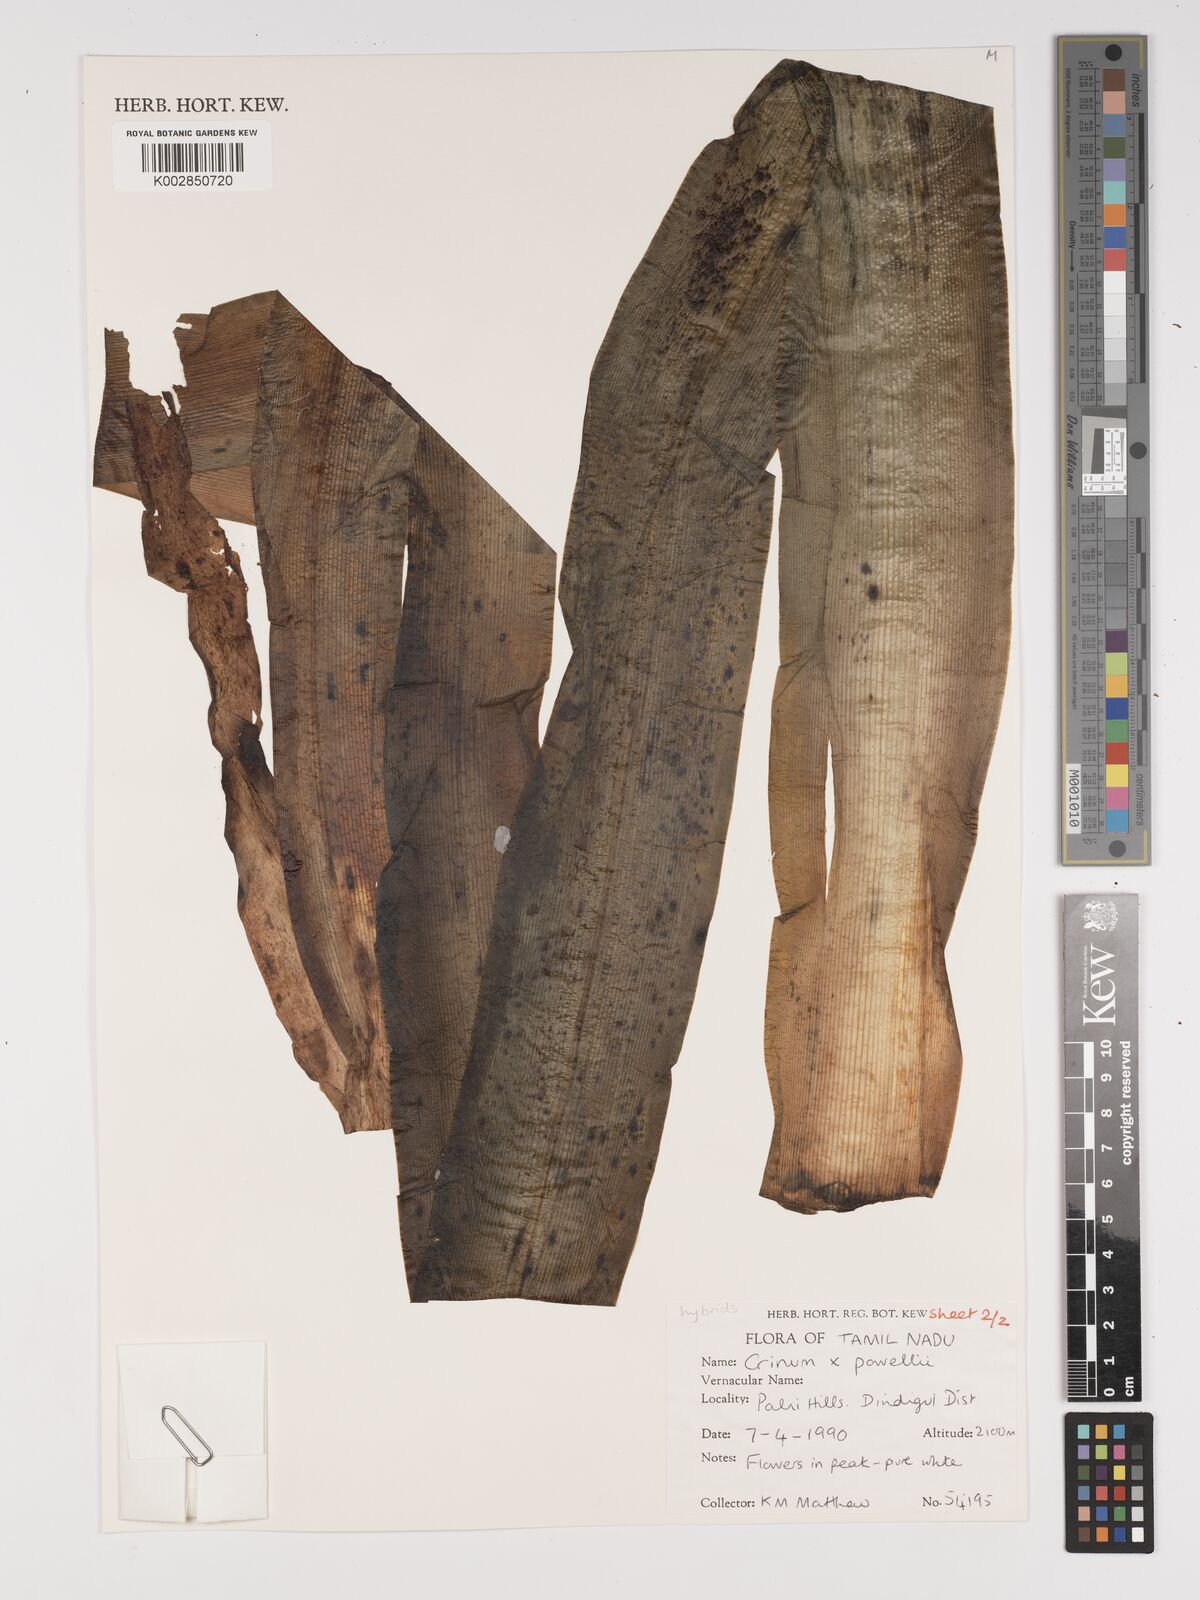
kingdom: Plantae
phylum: Tracheophyta
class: Liliopsida
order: Asparagales
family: Amaryllidaceae
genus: Crinum
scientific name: Crinum powellii
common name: Powell's cape-lily
